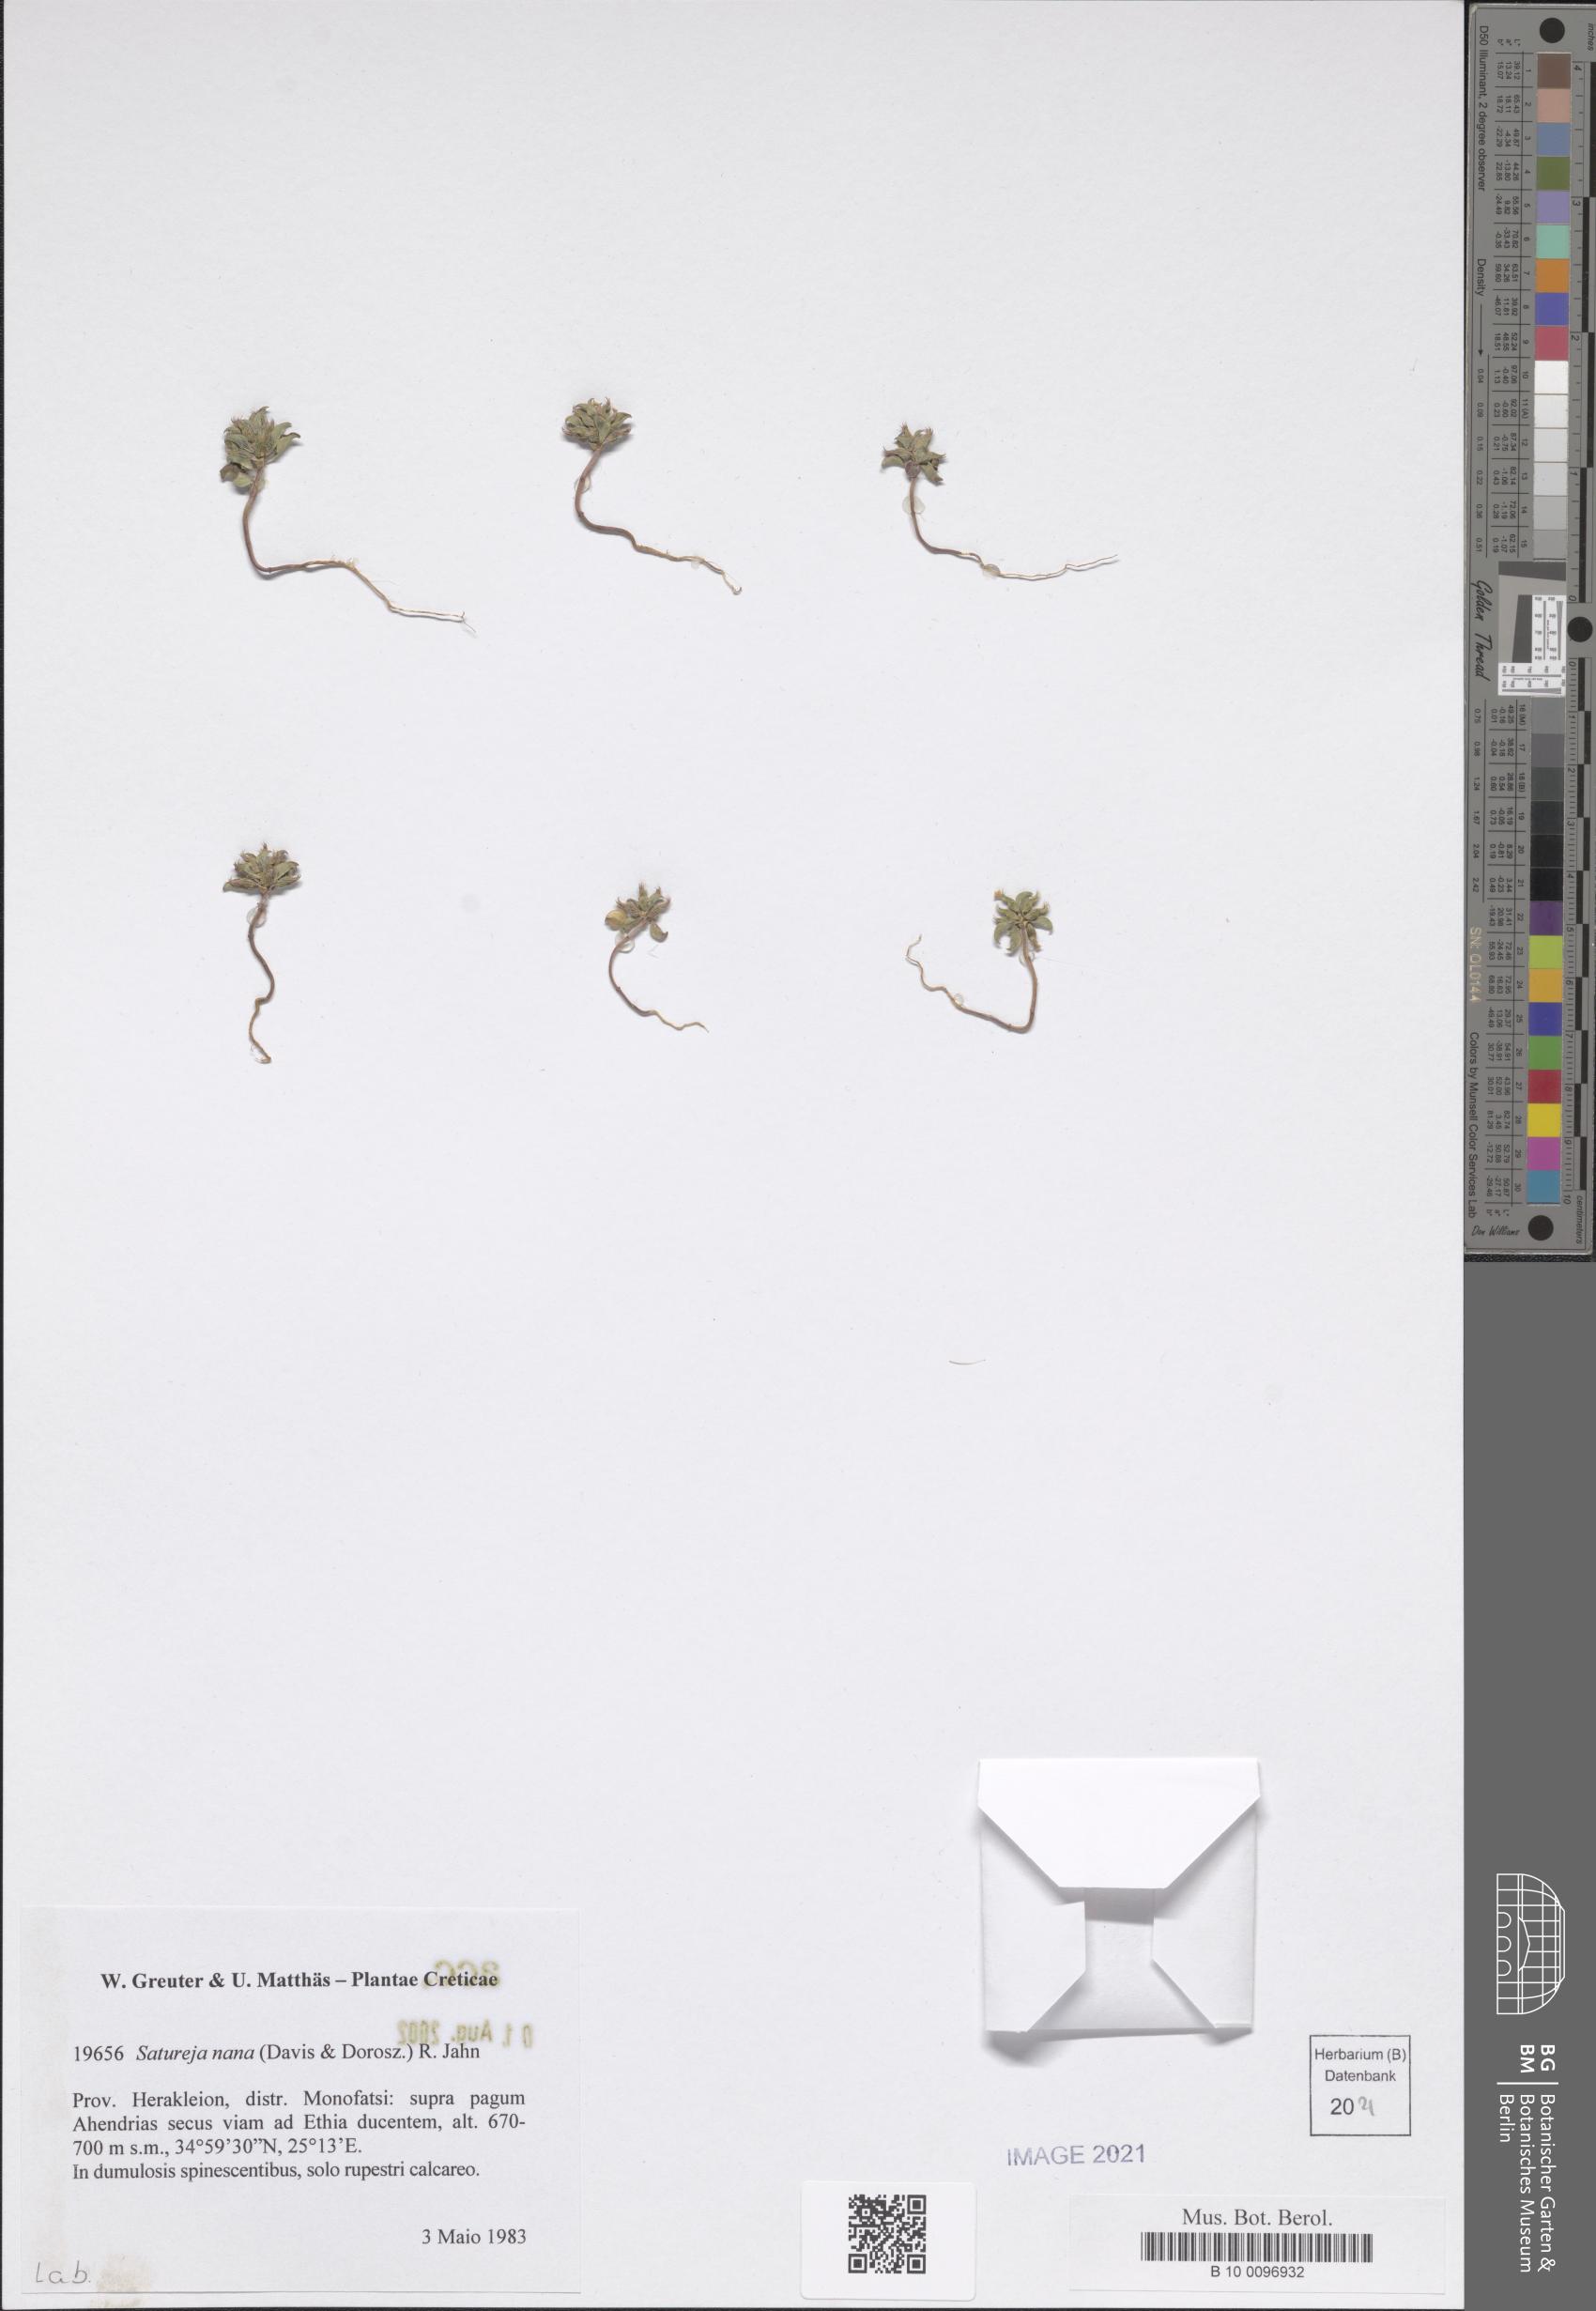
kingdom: Plantae
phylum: Tracheophyta
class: Magnoliopsida
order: Lamiales
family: Lamiaceae
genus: Clinopodium
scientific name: Clinopodium nanum
